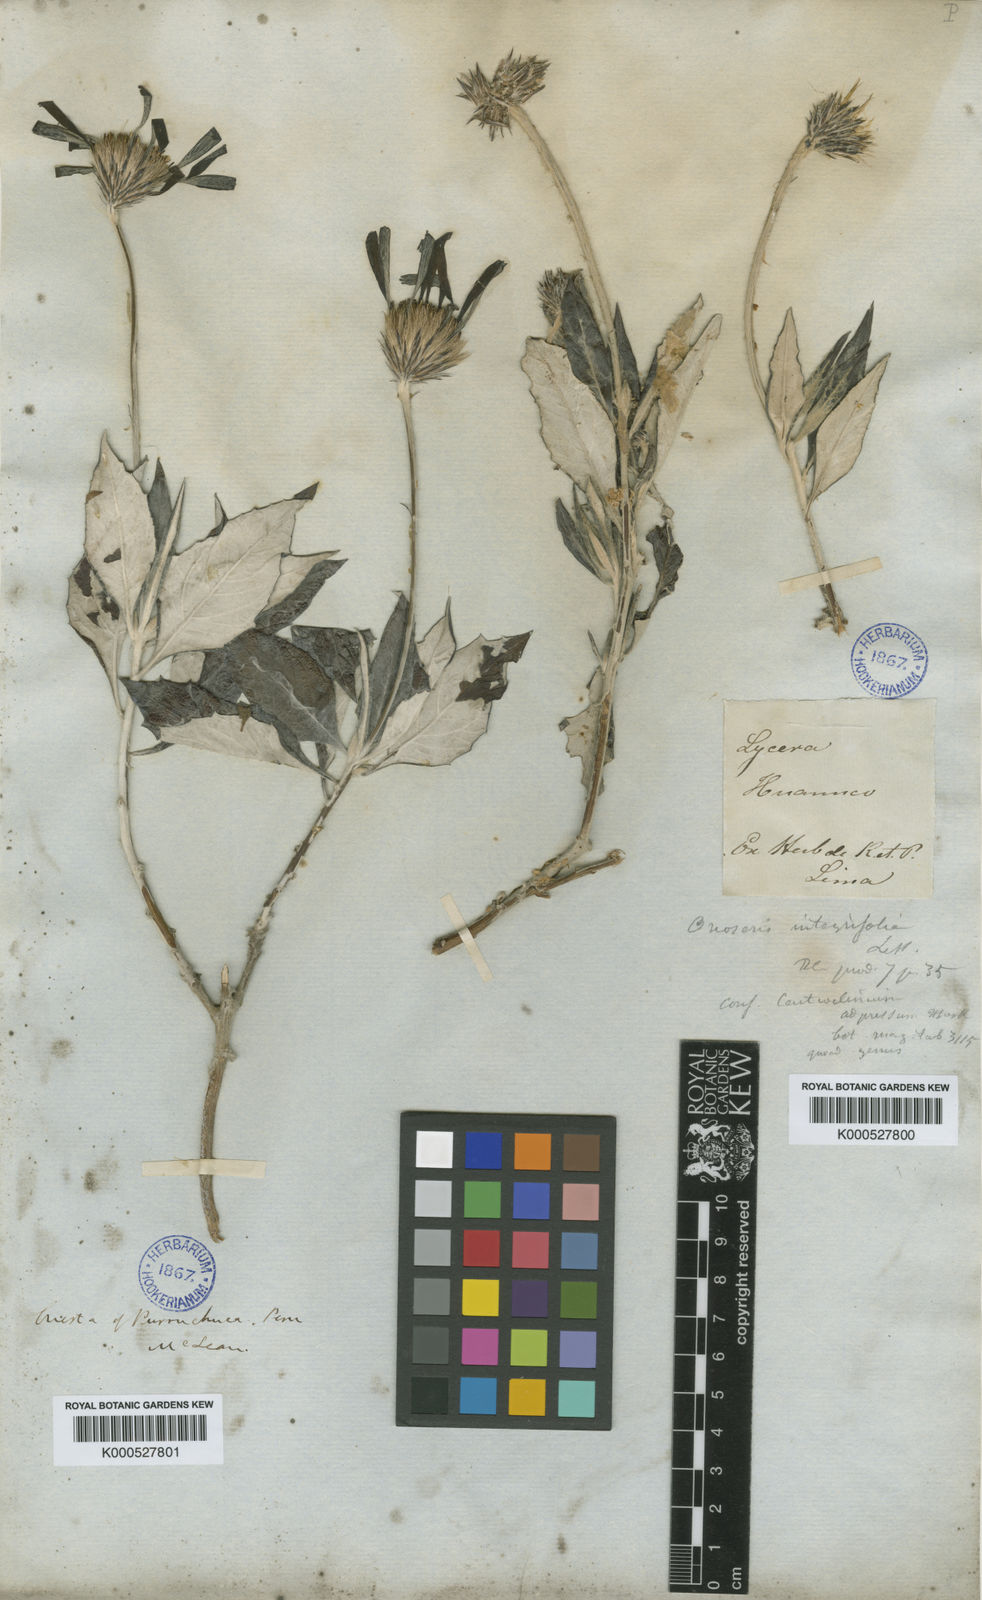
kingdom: Plantae
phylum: Tracheophyta
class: Magnoliopsida
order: Asterales
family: Asteraceae
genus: Onoseris
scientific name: Onoseris albicans
